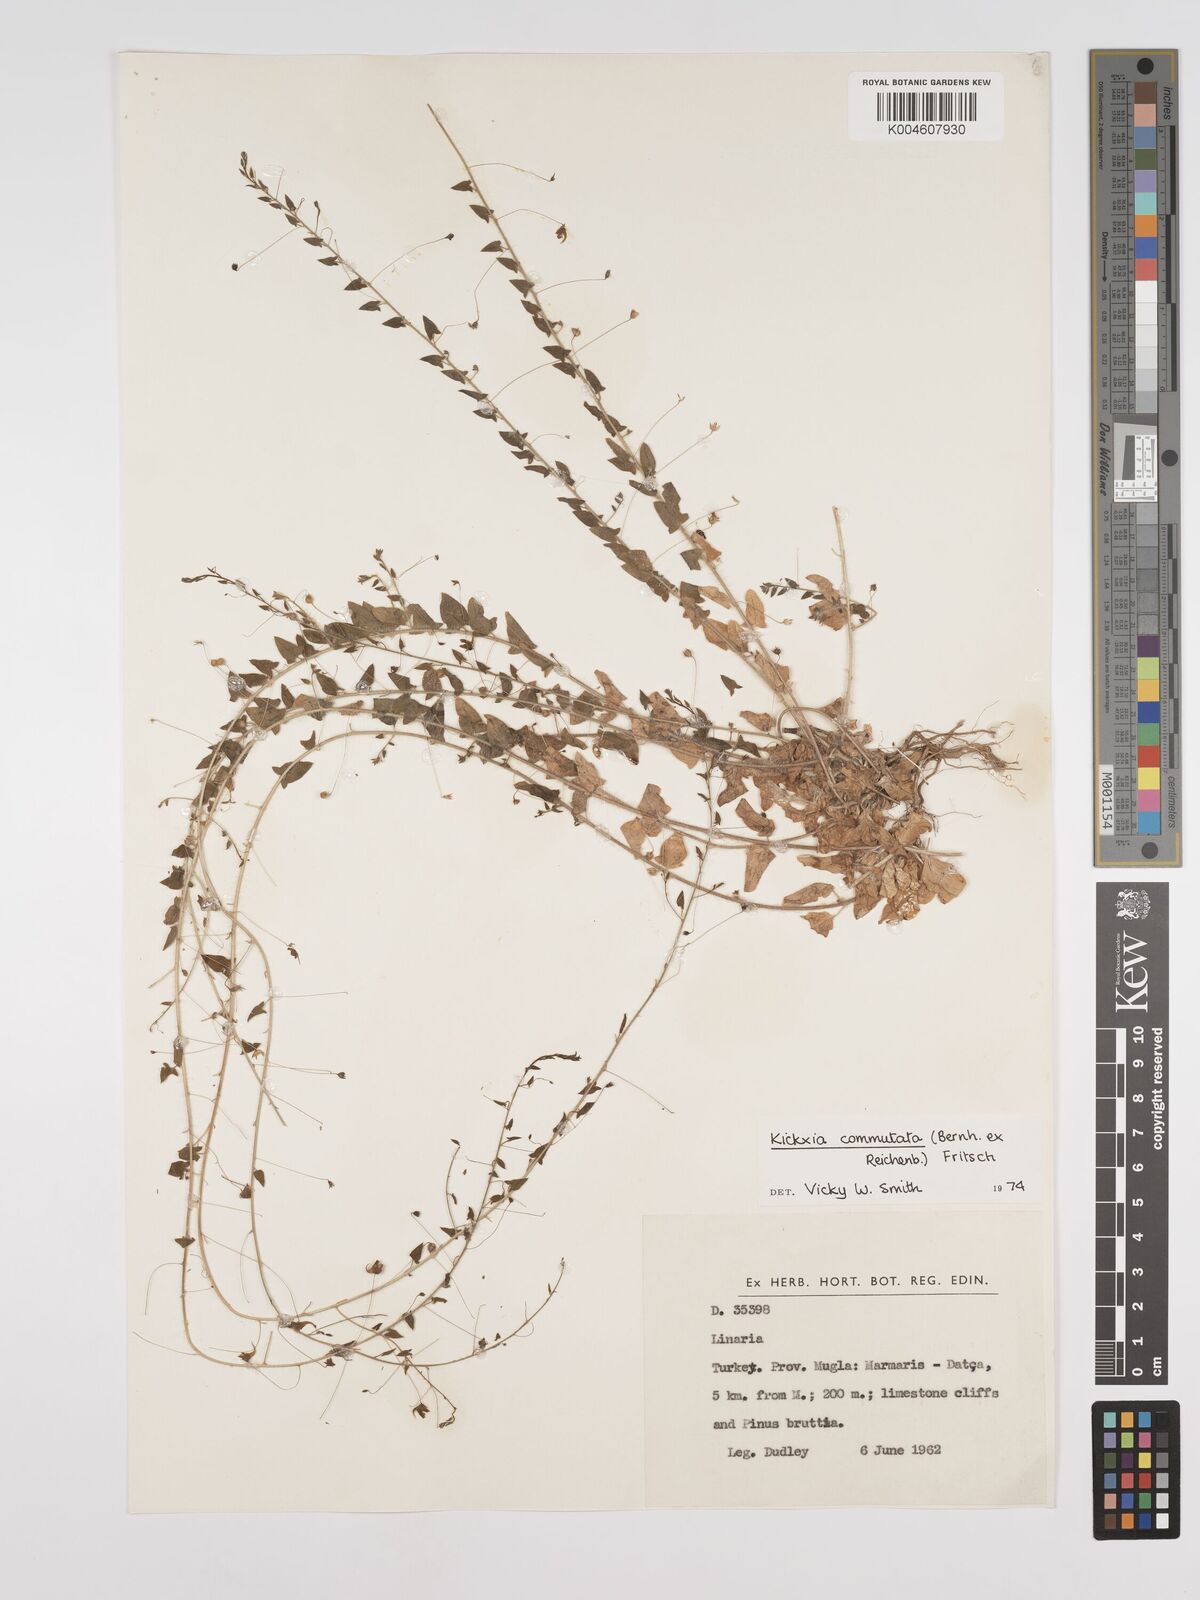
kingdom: Plantae
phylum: Tracheophyta
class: Magnoliopsida
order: Lamiales
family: Plantaginaceae
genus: Kickxia
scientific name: Kickxia commutata
